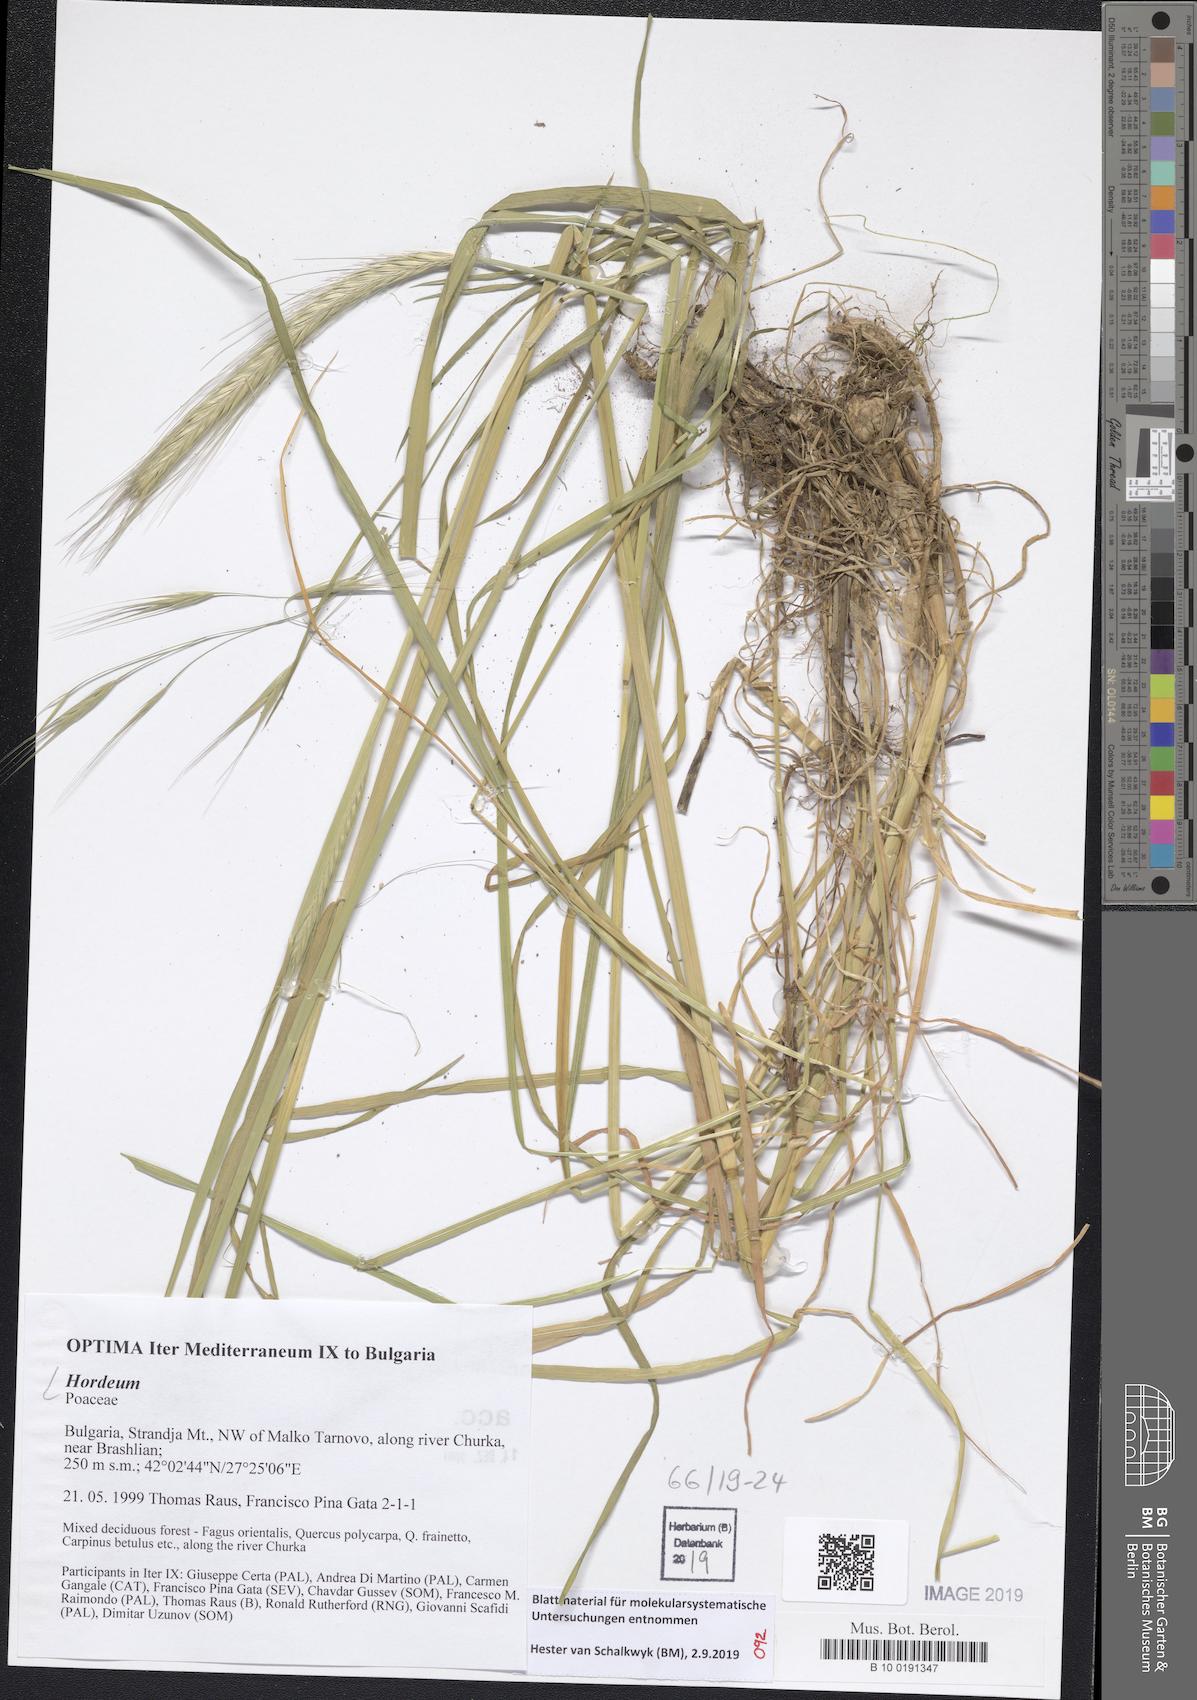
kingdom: Plantae
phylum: Tracheophyta
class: Liliopsida
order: Poales
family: Poaceae
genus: Hordeum
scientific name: Hordeum
